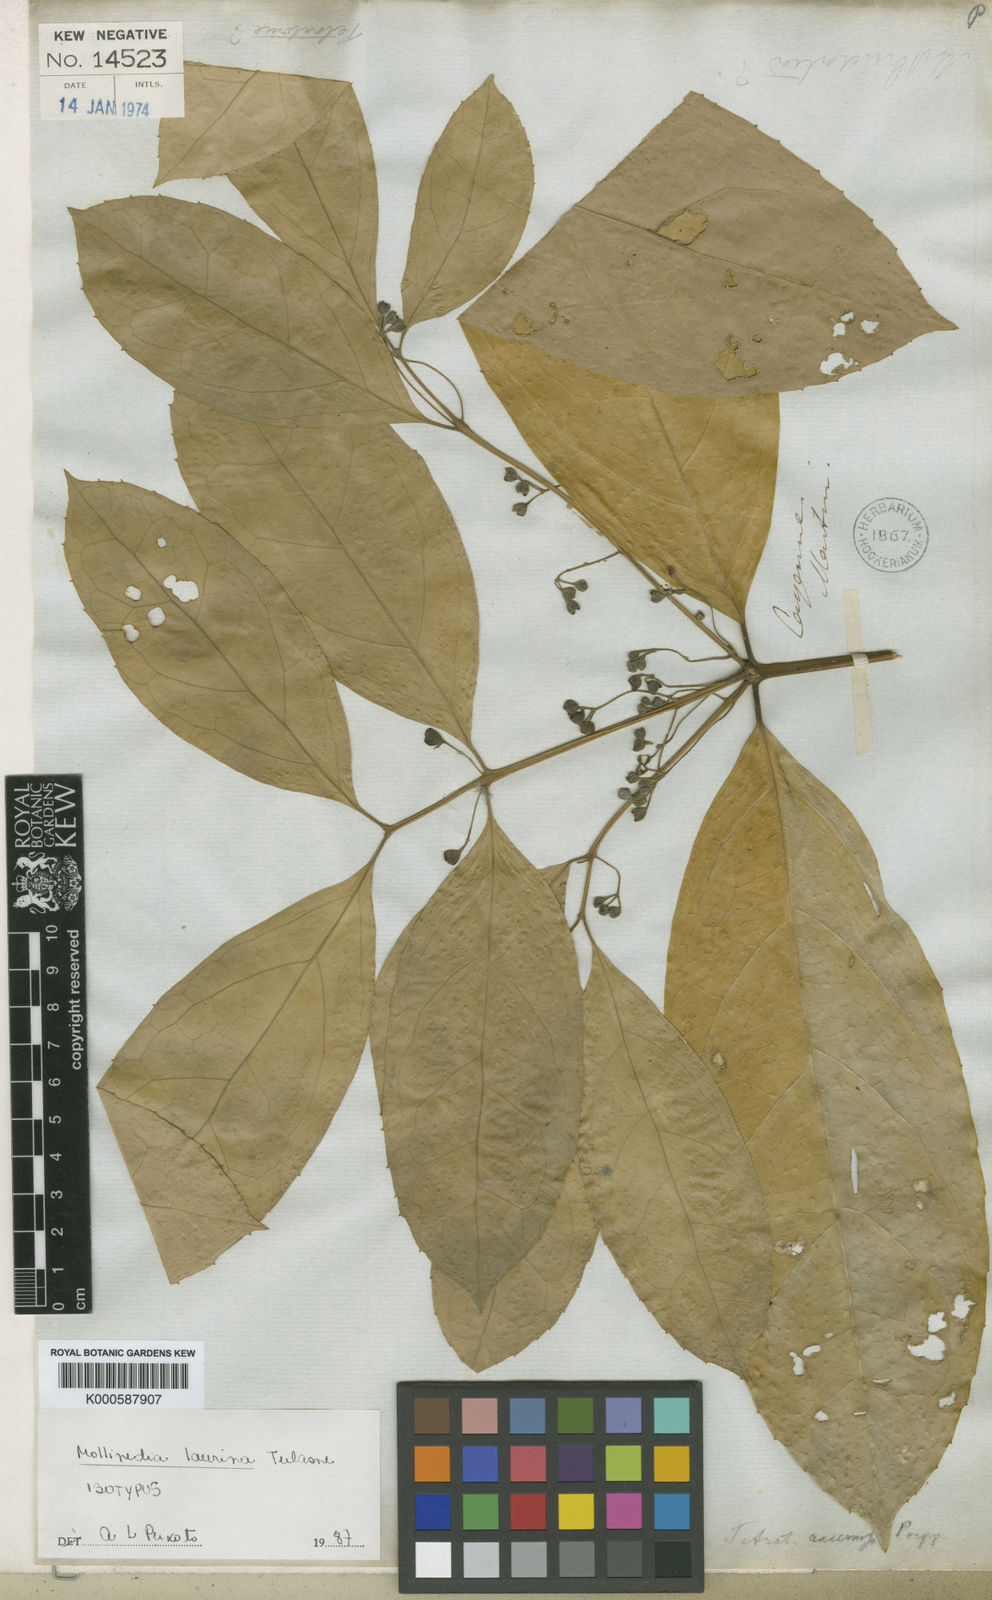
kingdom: Plantae
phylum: Tracheophyta
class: Magnoliopsida
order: Laurales
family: Monimiaceae
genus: Mollinedia
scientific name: Mollinedia ovata
